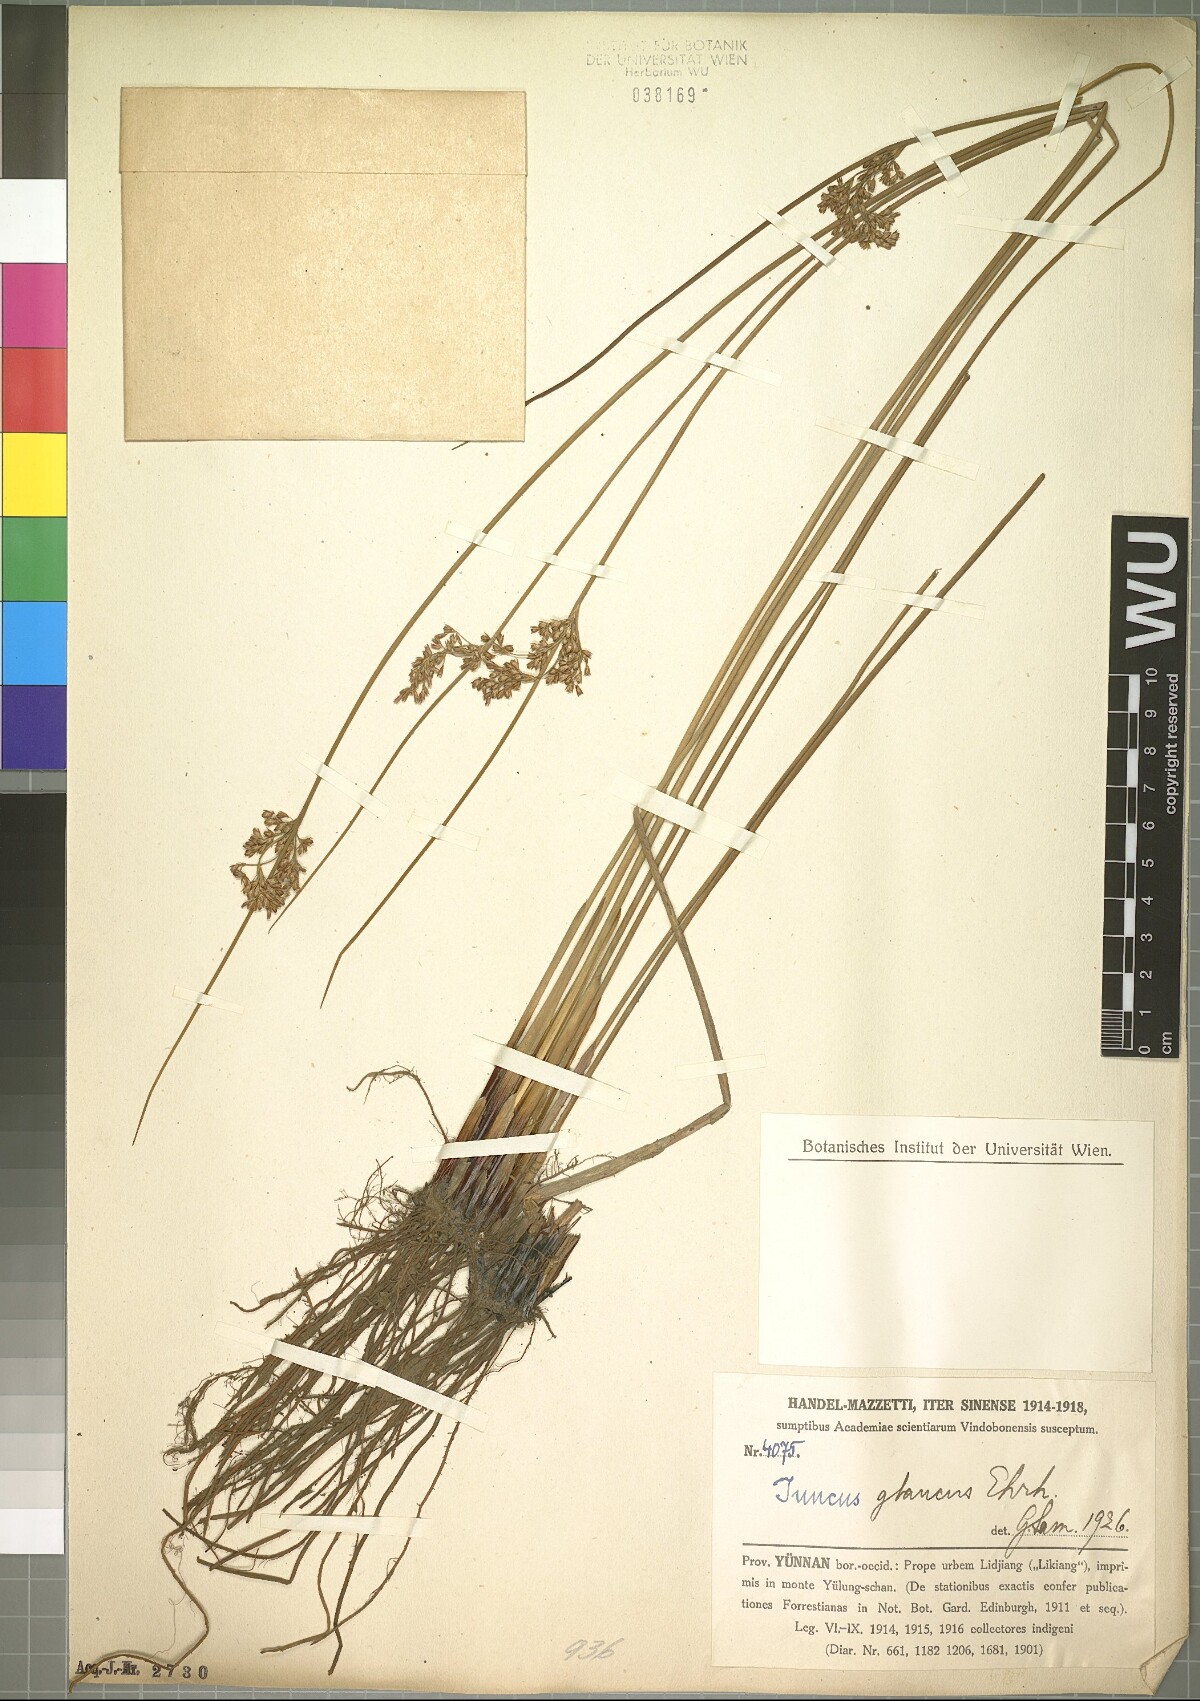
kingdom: Plantae
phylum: Tracheophyta
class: Liliopsida
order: Poales
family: Juncaceae
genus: Juncus
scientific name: Juncus inflexus
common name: Hard rush
